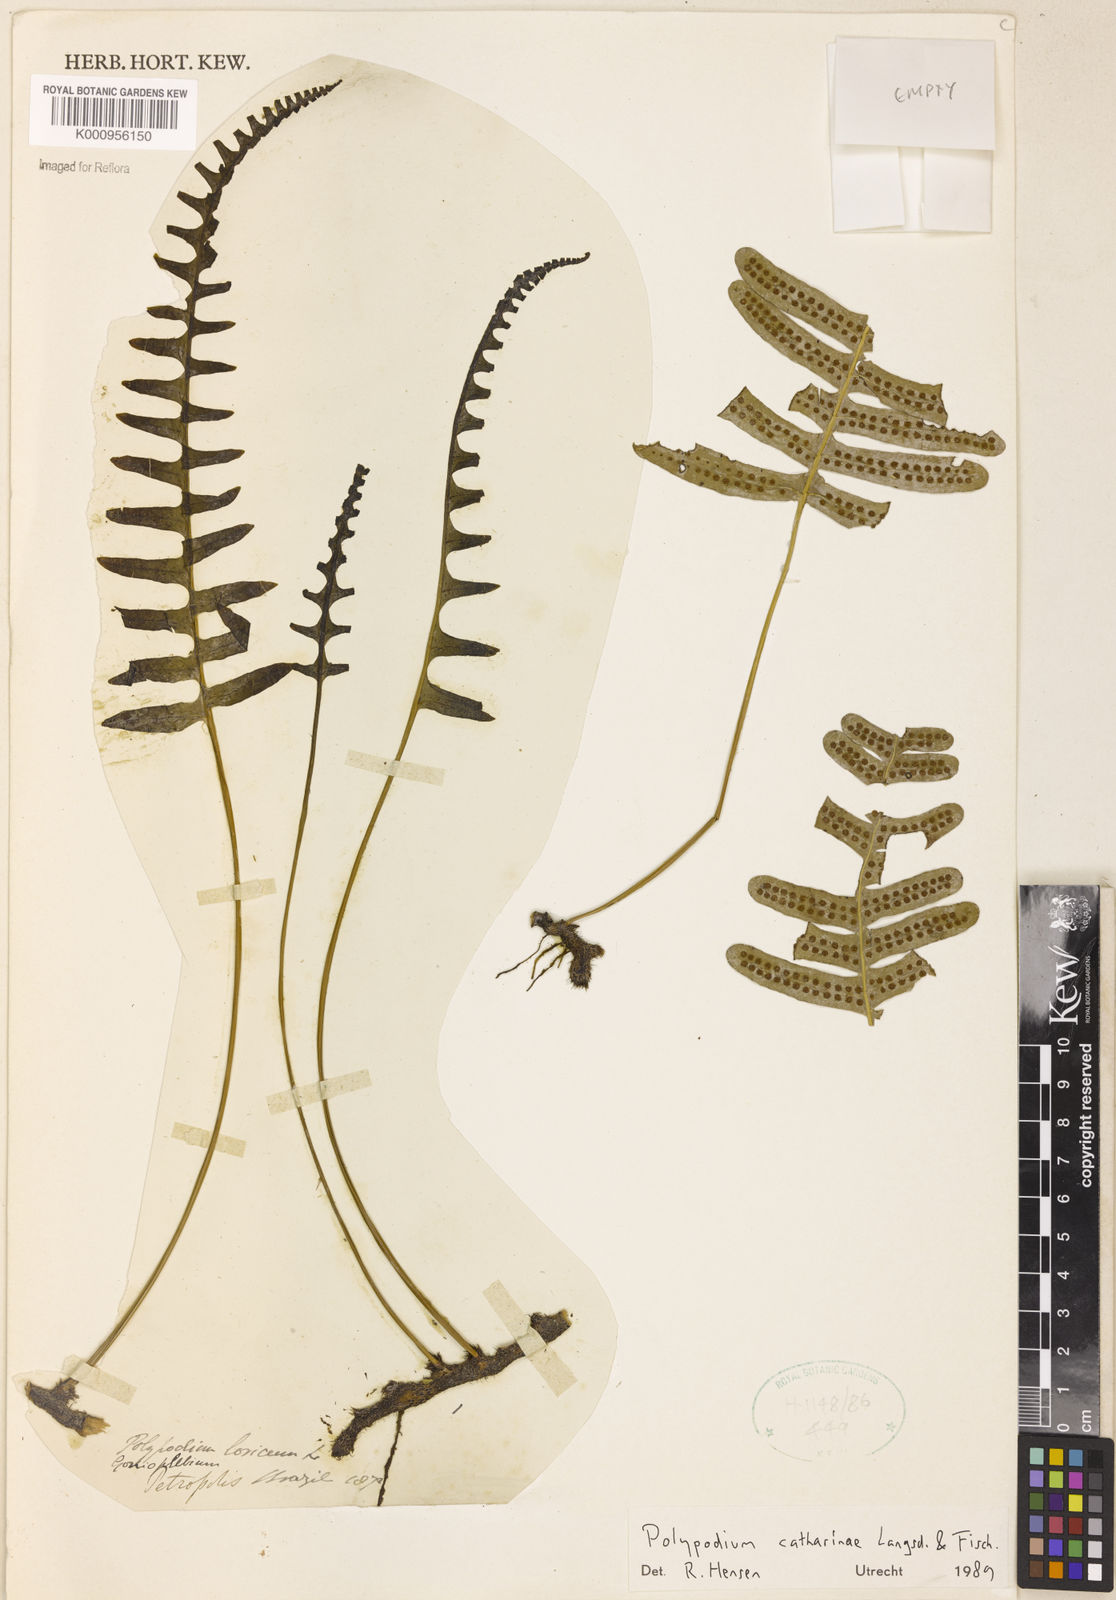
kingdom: Plantae
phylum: Tracheophyta
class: Polypodiopsida
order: Polypodiales
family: Polypodiaceae
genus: Serpocaulon
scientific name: Serpocaulon catharinae
